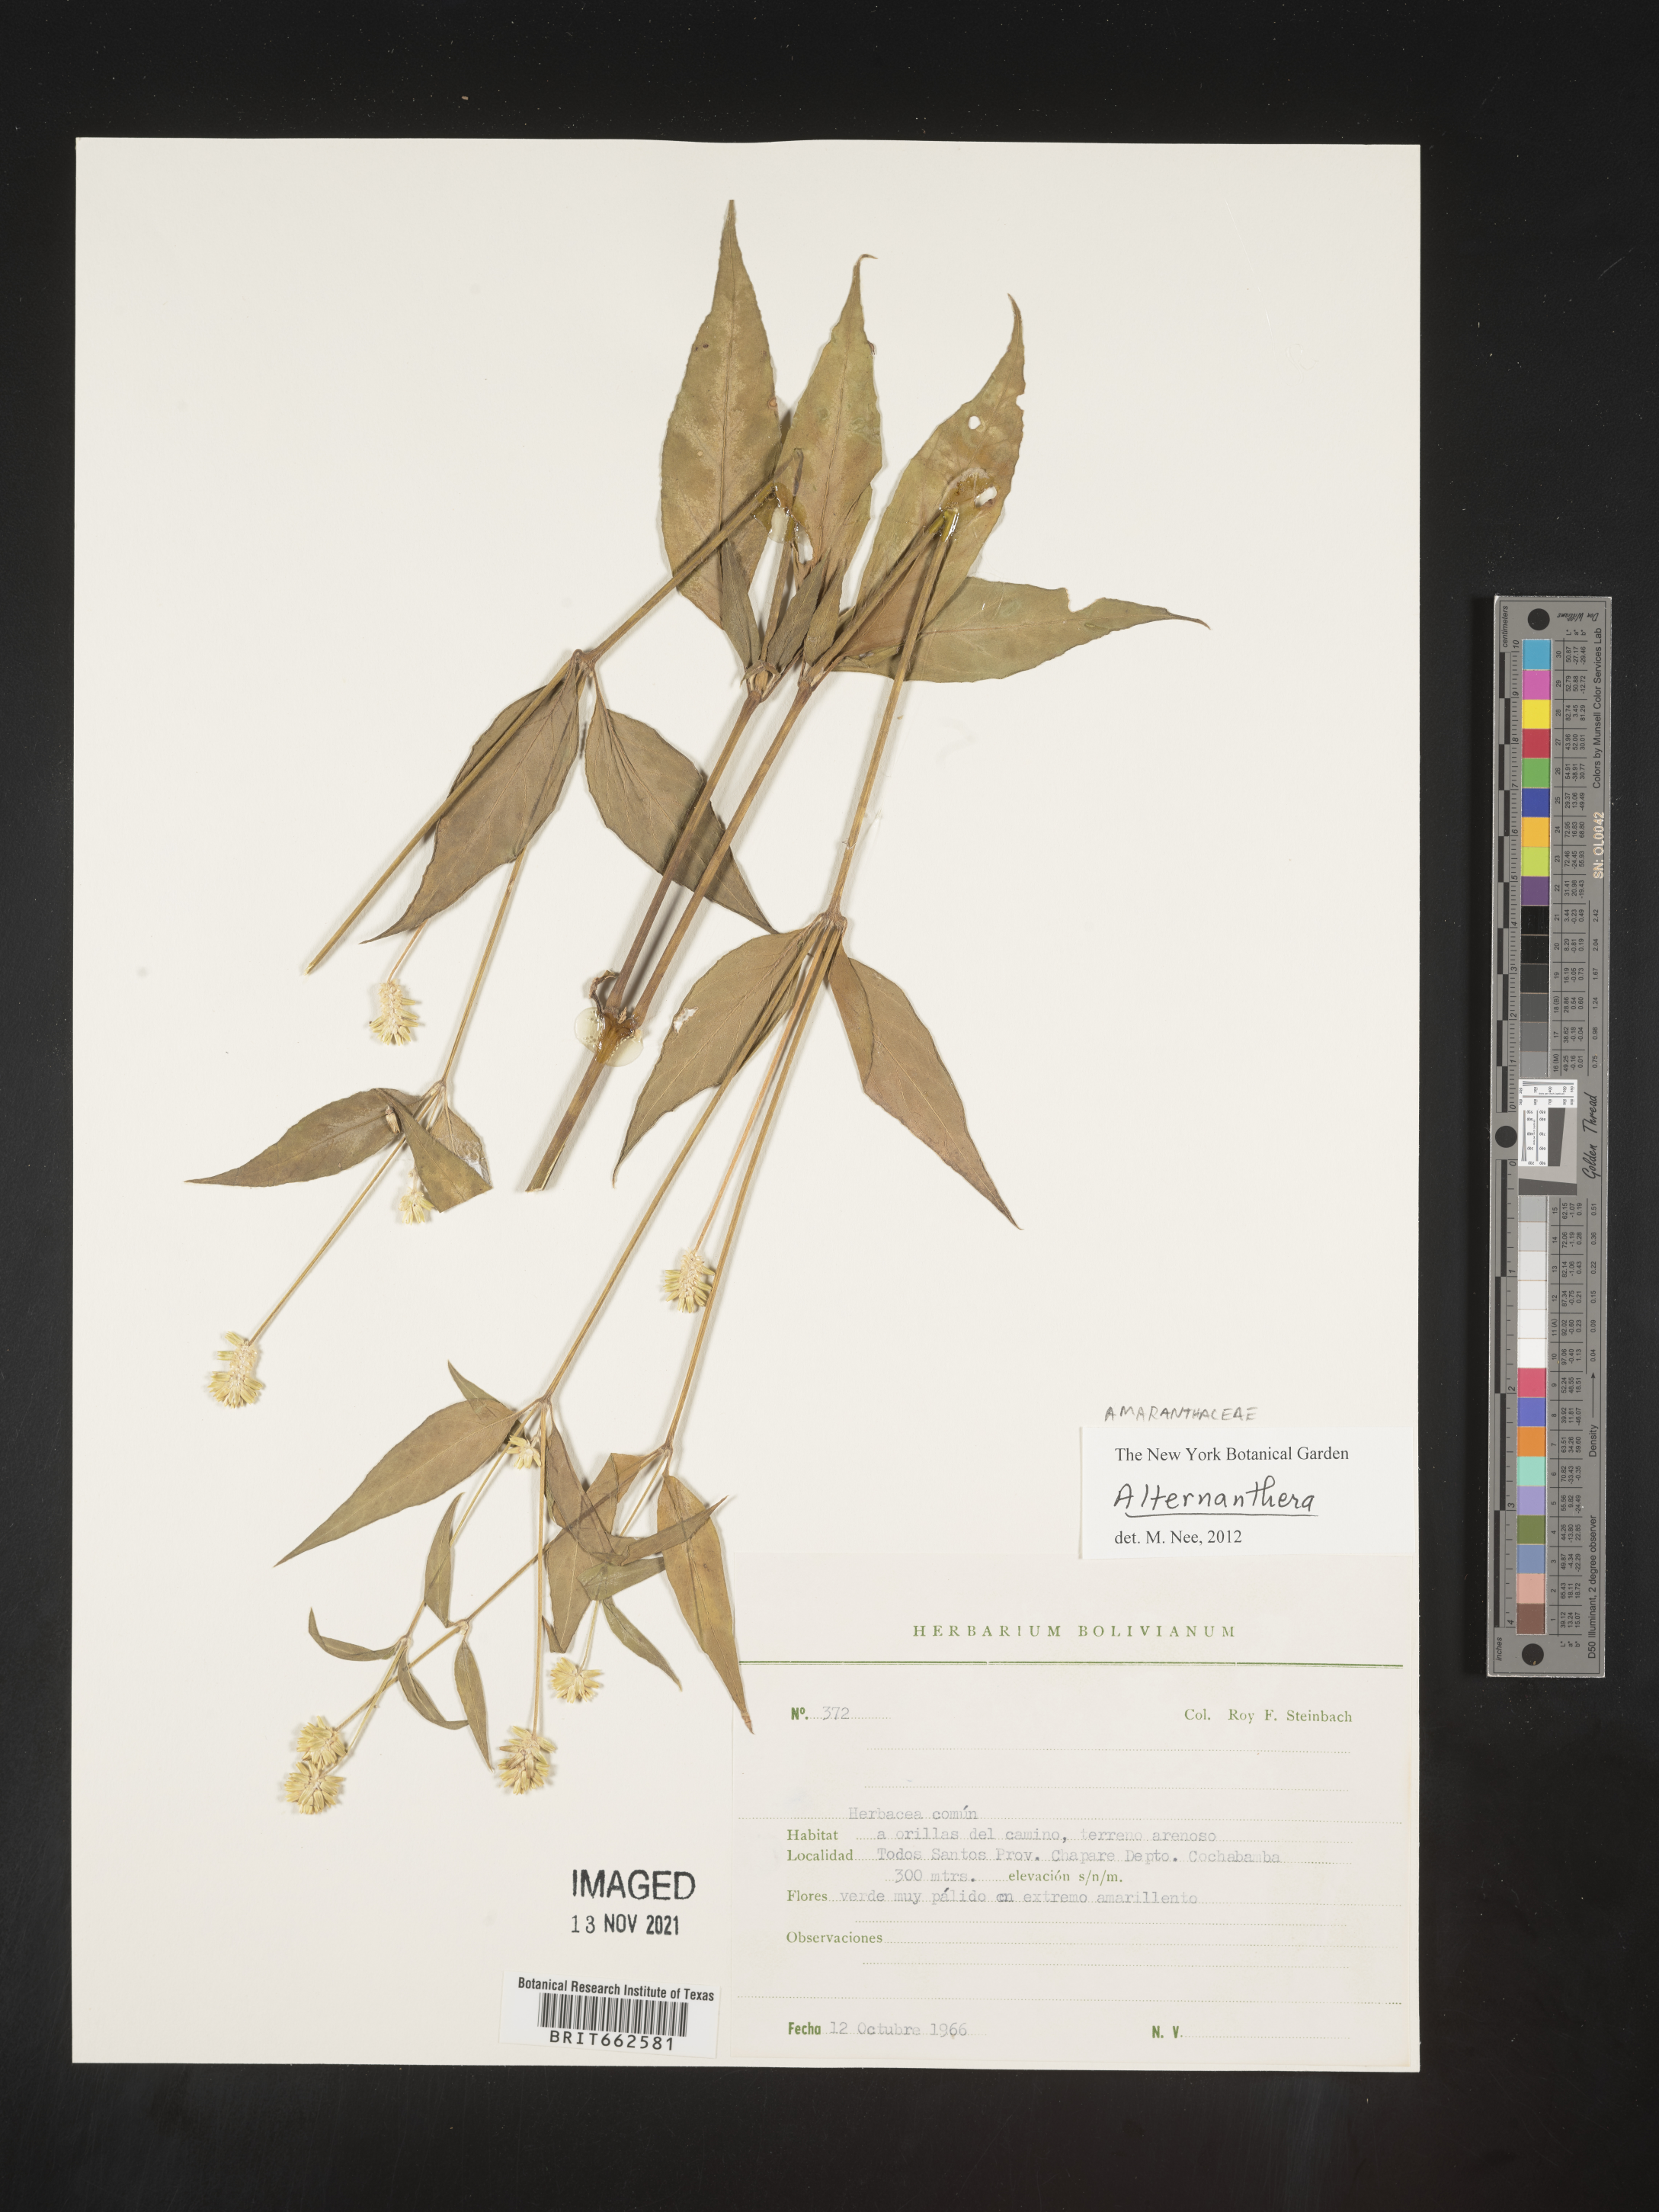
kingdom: Plantae
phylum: Tracheophyta
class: Magnoliopsida
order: Caryophyllales
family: Amaranthaceae
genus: Alternanthera
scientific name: Alternanthera
